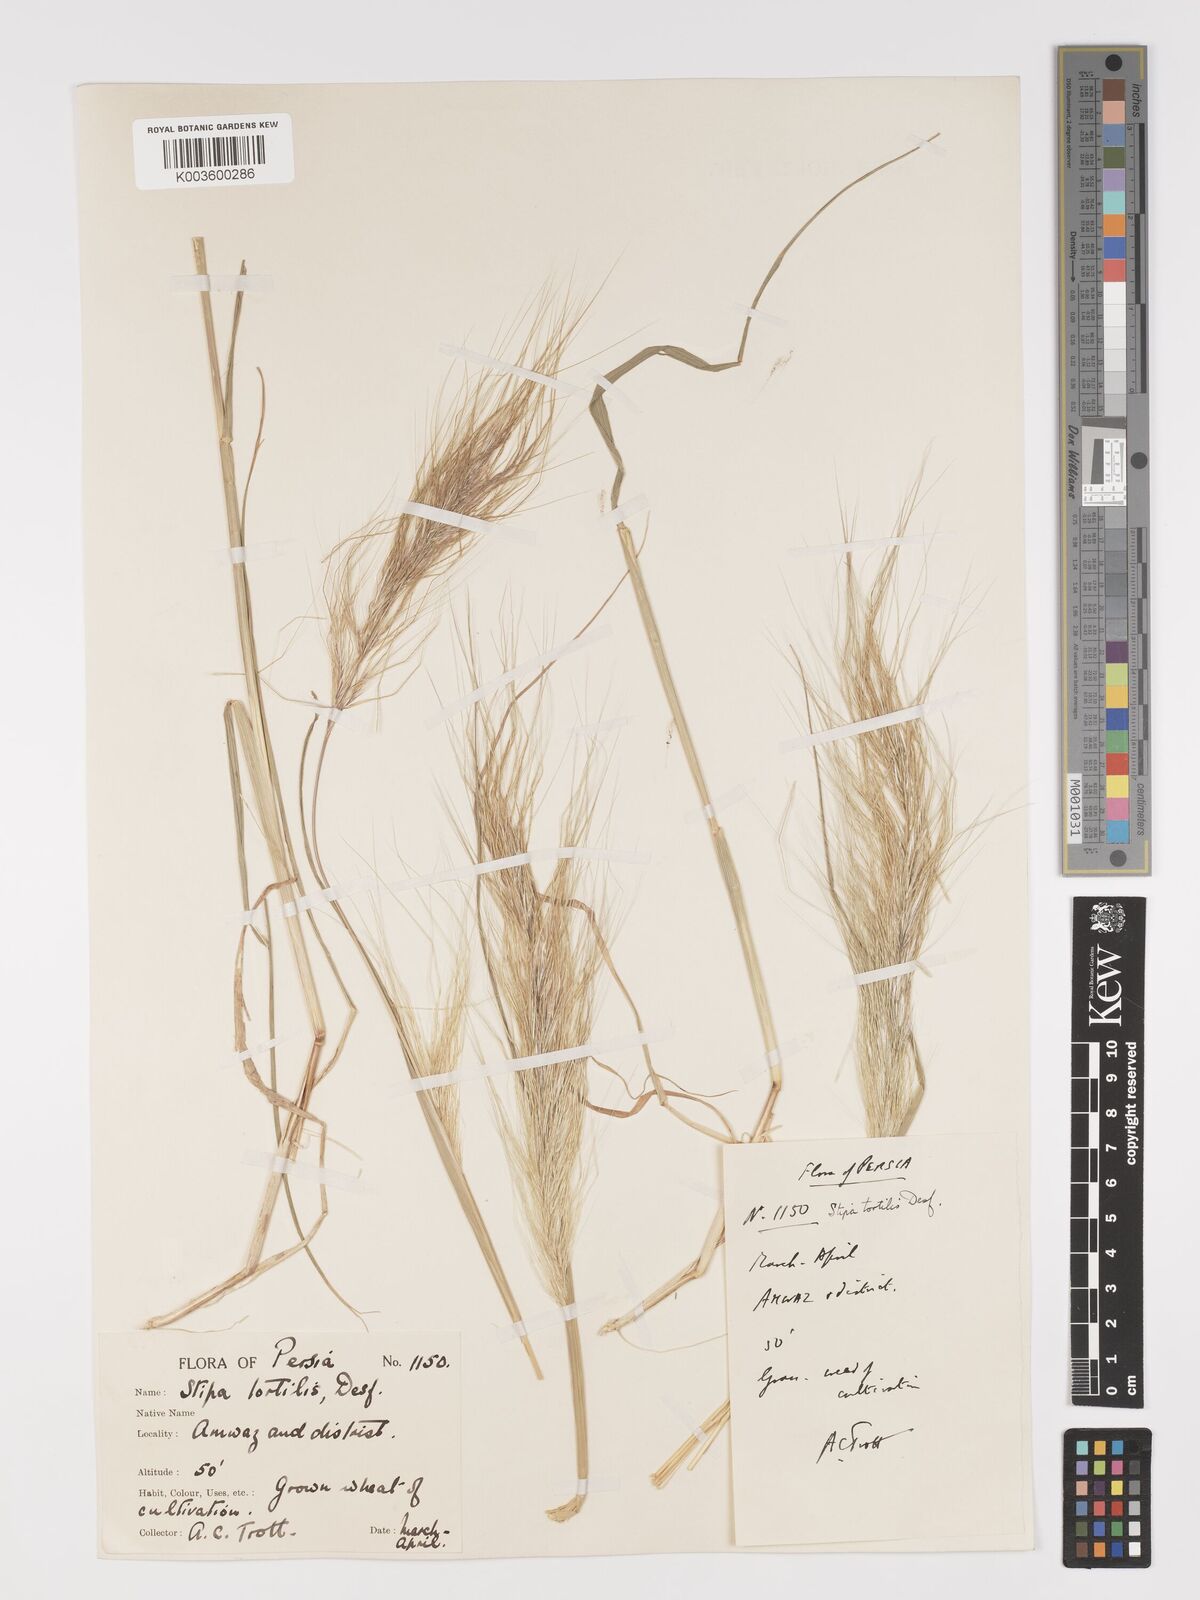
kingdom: Plantae
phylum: Tracheophyta
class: Liliopsida
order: Poales
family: Poaceae
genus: Stipellula
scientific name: Stipellula capensis
